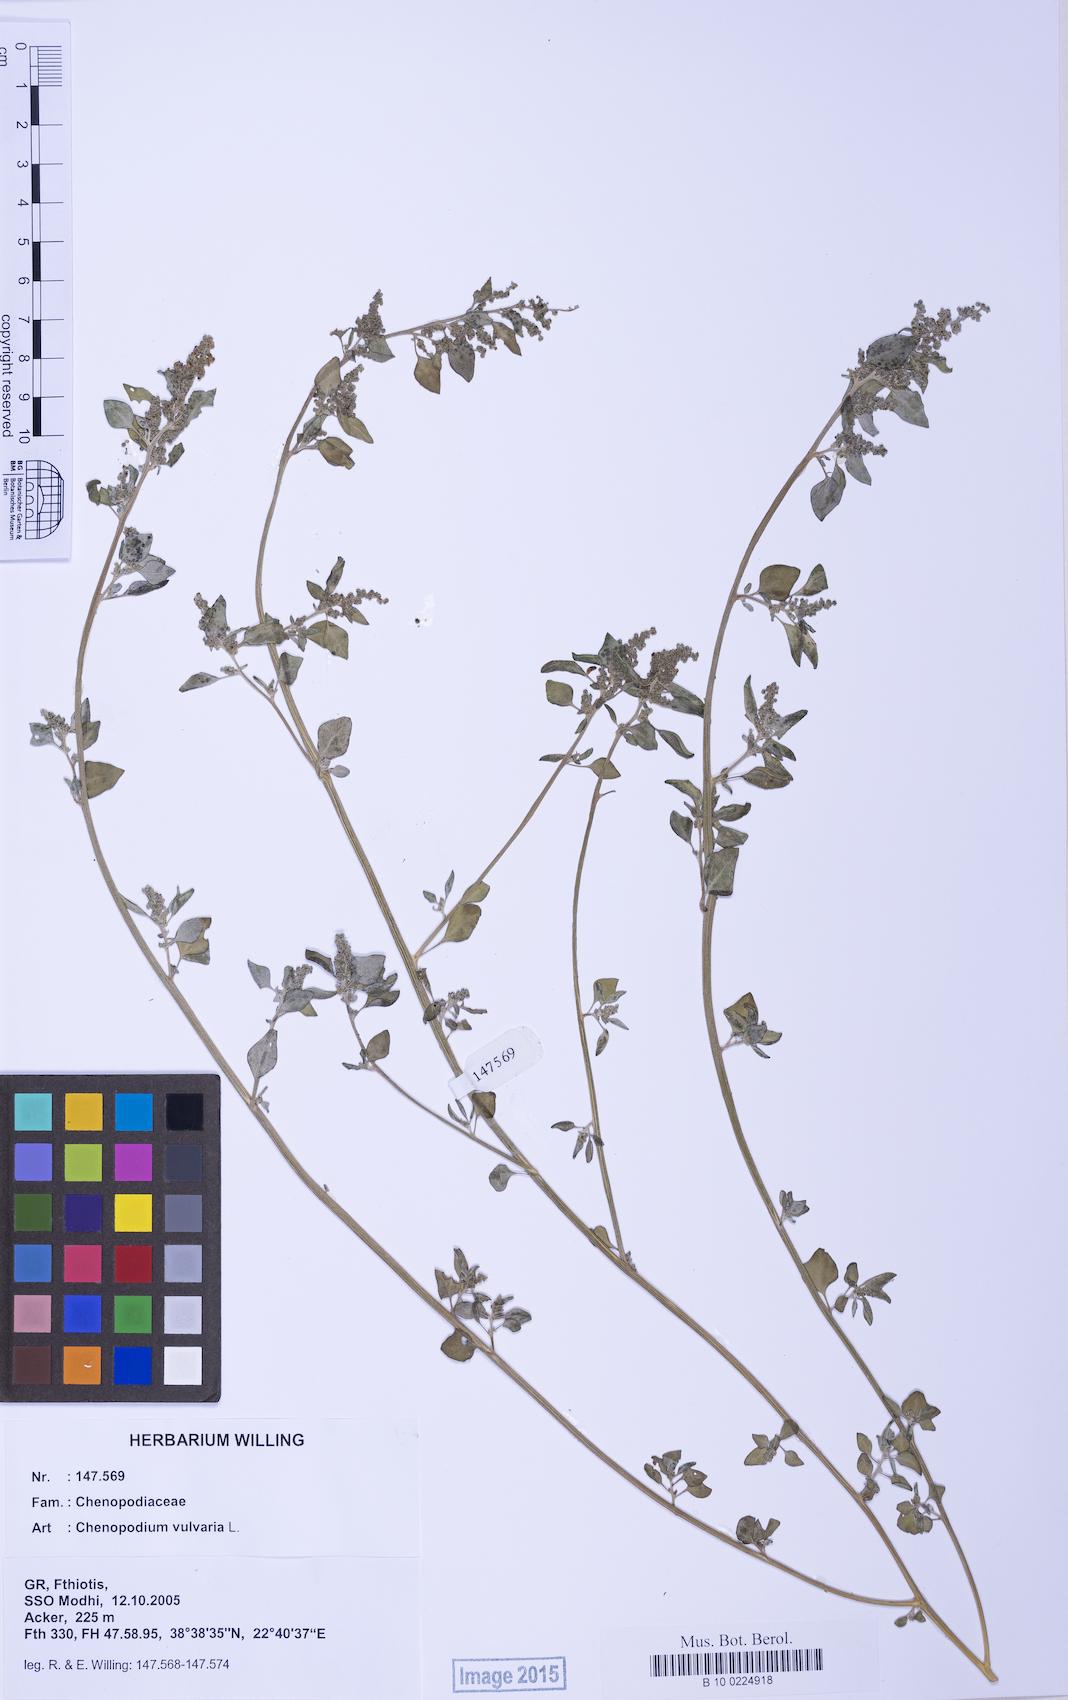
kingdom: Plantae
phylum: Tracheophyta
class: Magnoliopsida
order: Caryophyllales
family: Amaranthaceae
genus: Chenopodium
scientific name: Chenopodium vulvaria
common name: Stinking goosefoot
